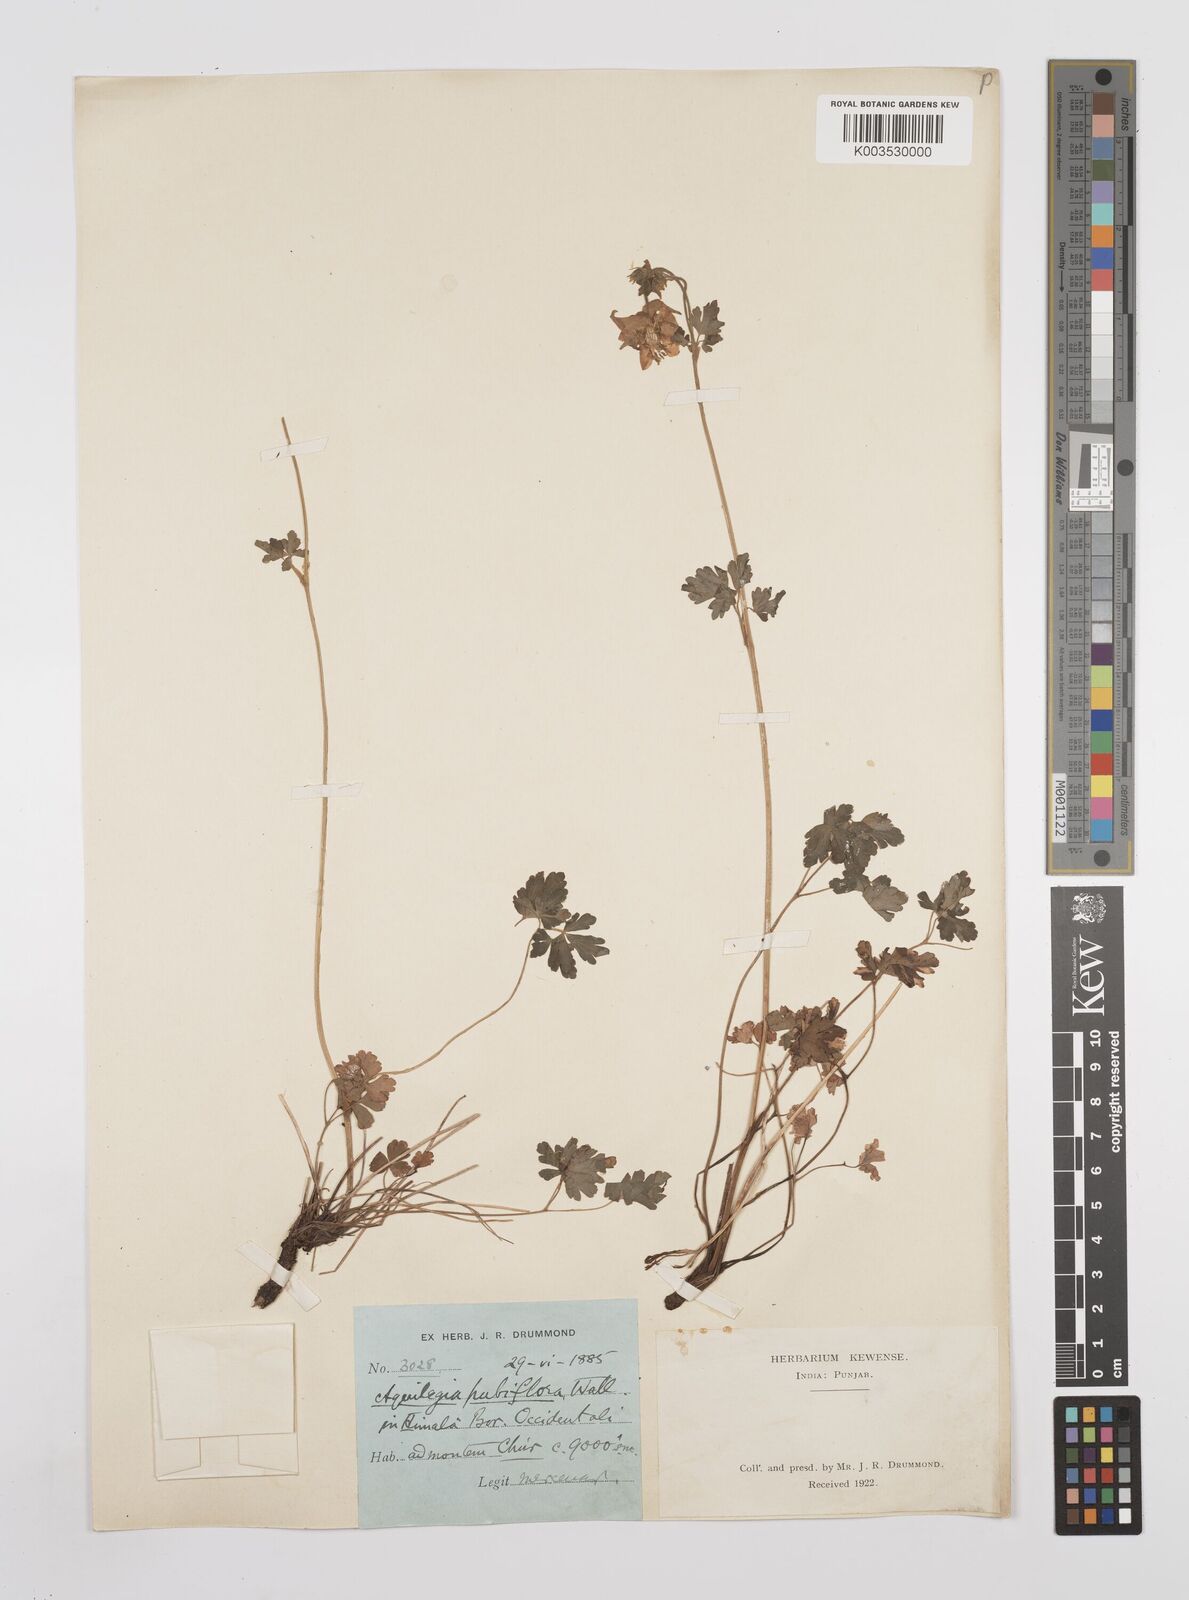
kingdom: Plantae
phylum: Tracheophyta
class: Magnoliopsida
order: Ranunculales
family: Ranunculaceae
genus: Aquilegia
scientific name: Aquilegia pubiflora
